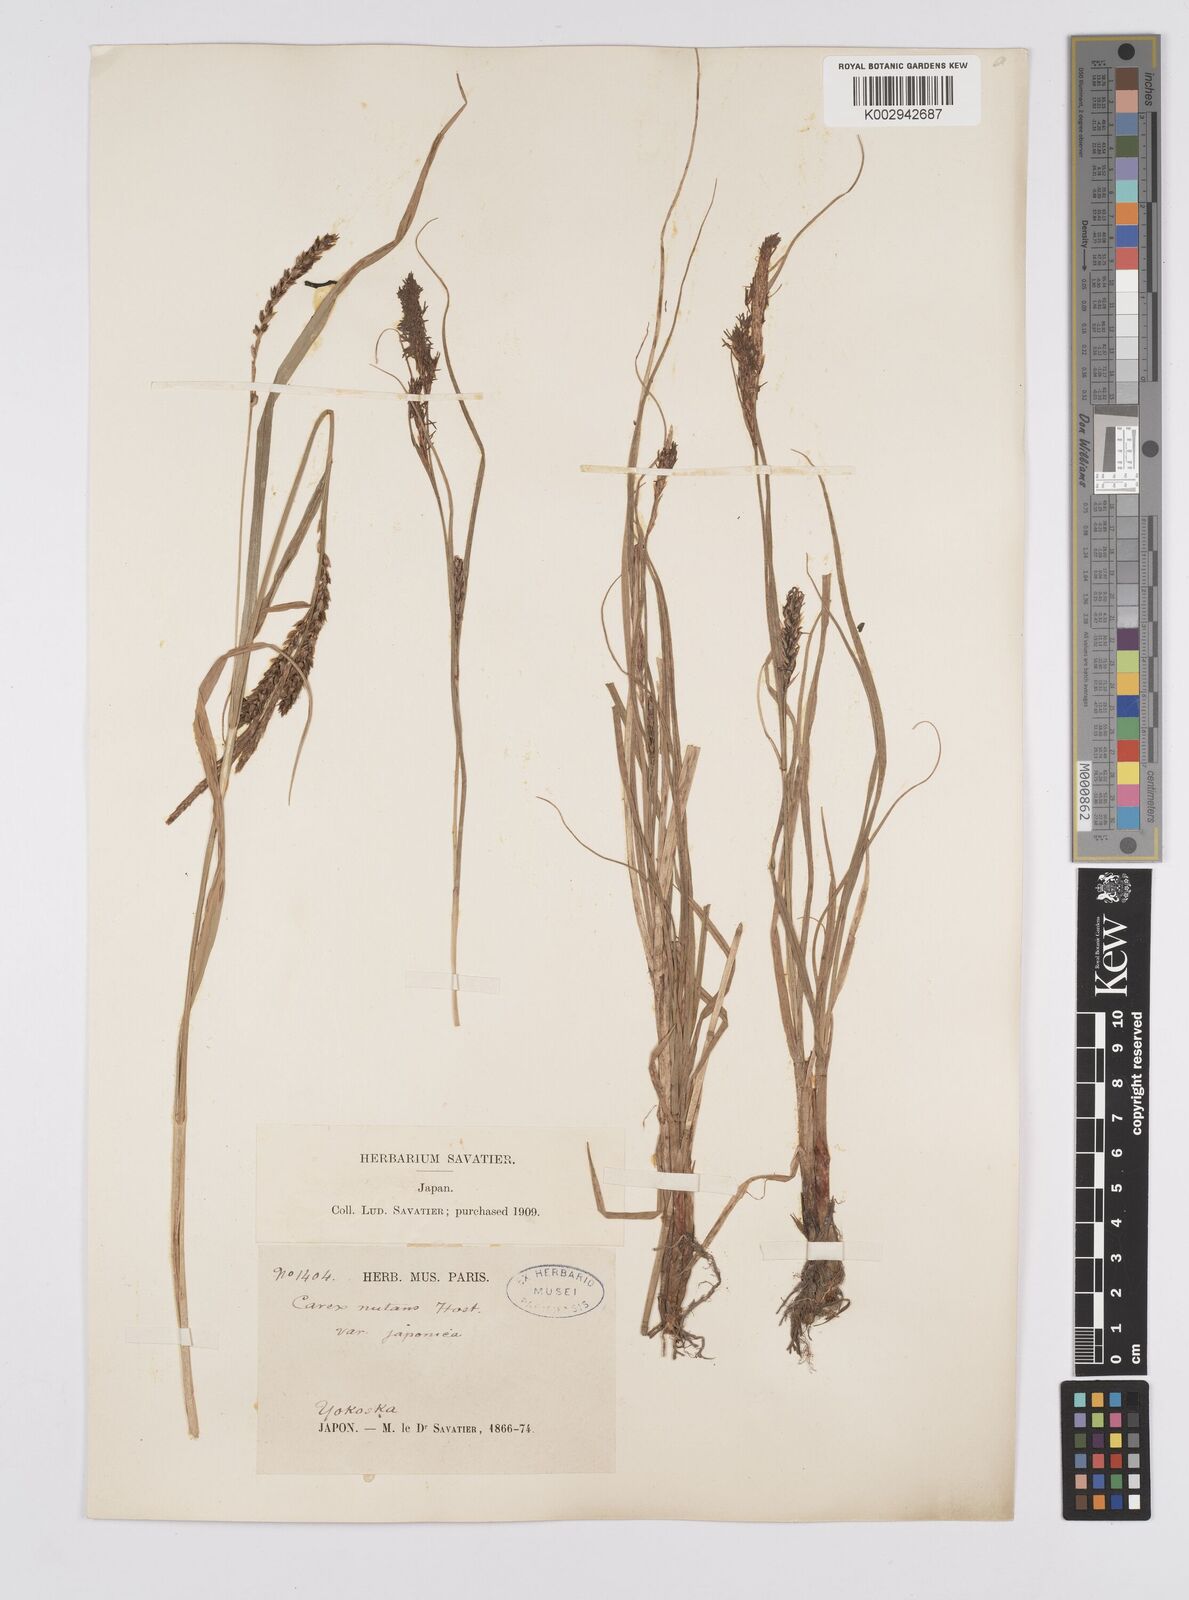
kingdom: Plantae
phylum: Tracheophyta
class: Liliopsida
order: Poales
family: Cyperaceae
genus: Carex
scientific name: Carex melanostachya
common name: Black-spiked sedge
